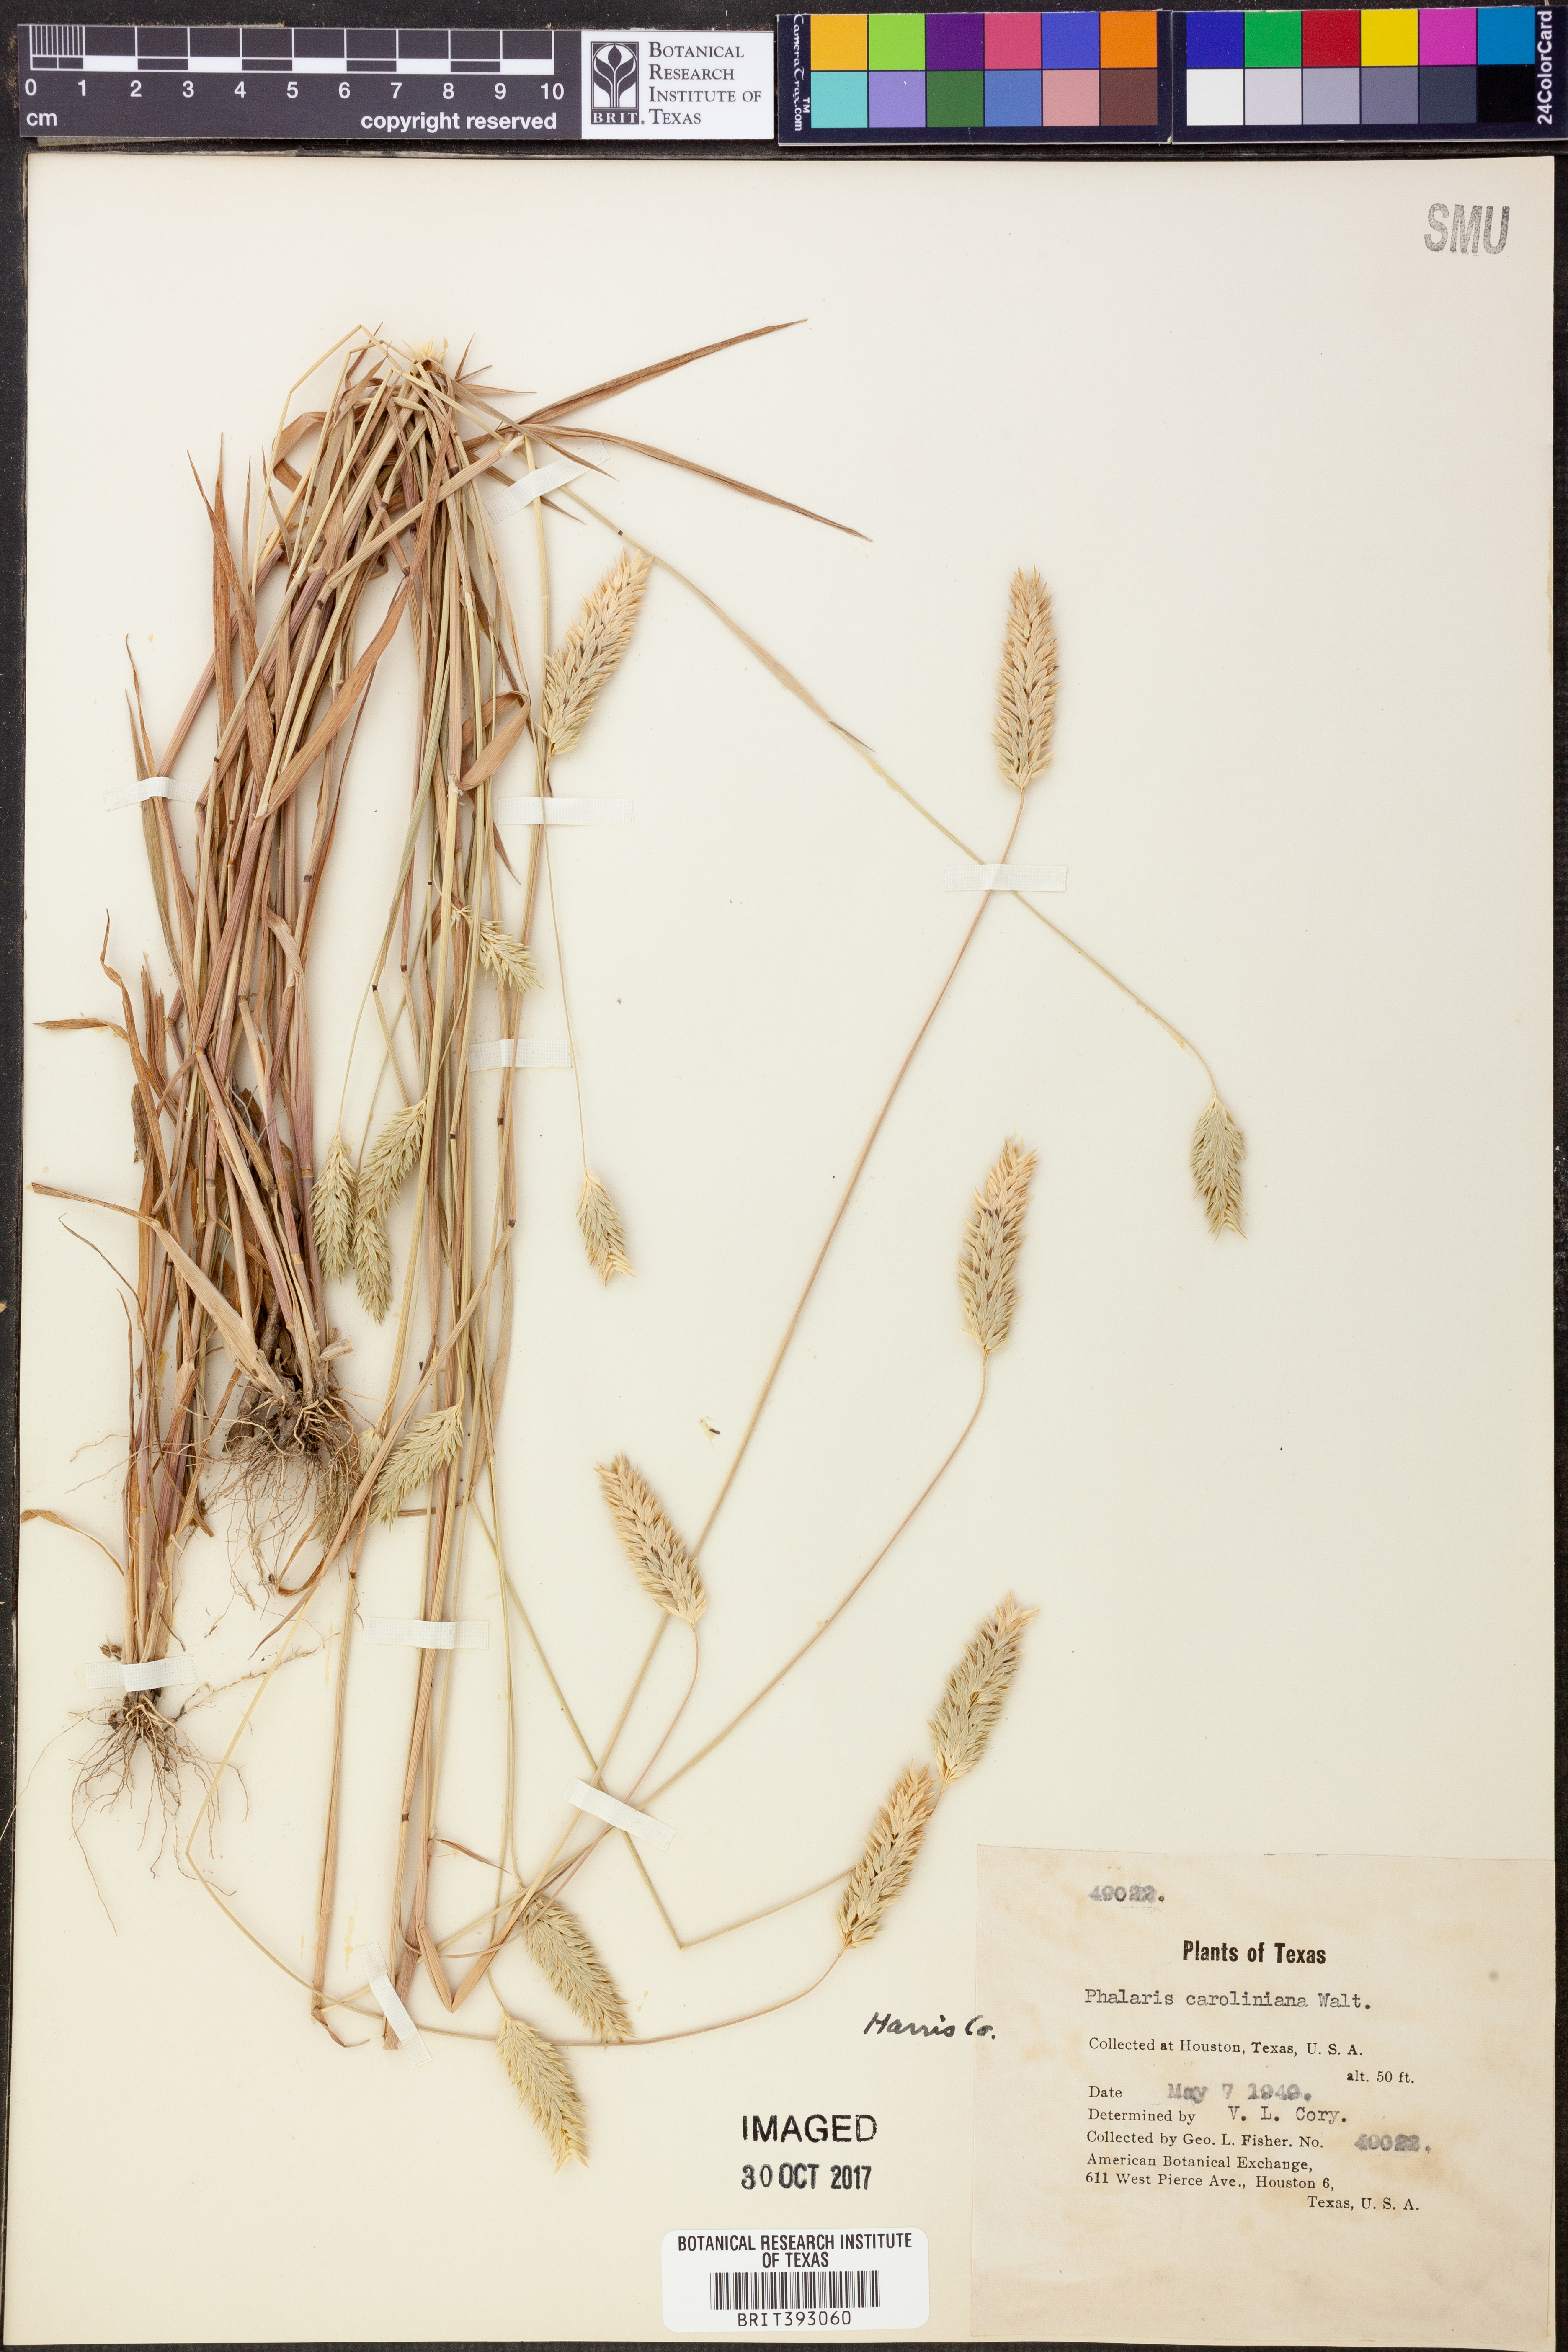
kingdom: Plantae
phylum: Tracheophyta
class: Liliopsida
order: Poales
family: Poaceae
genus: Phalaris
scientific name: Phalaris caroliniana
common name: May grass
